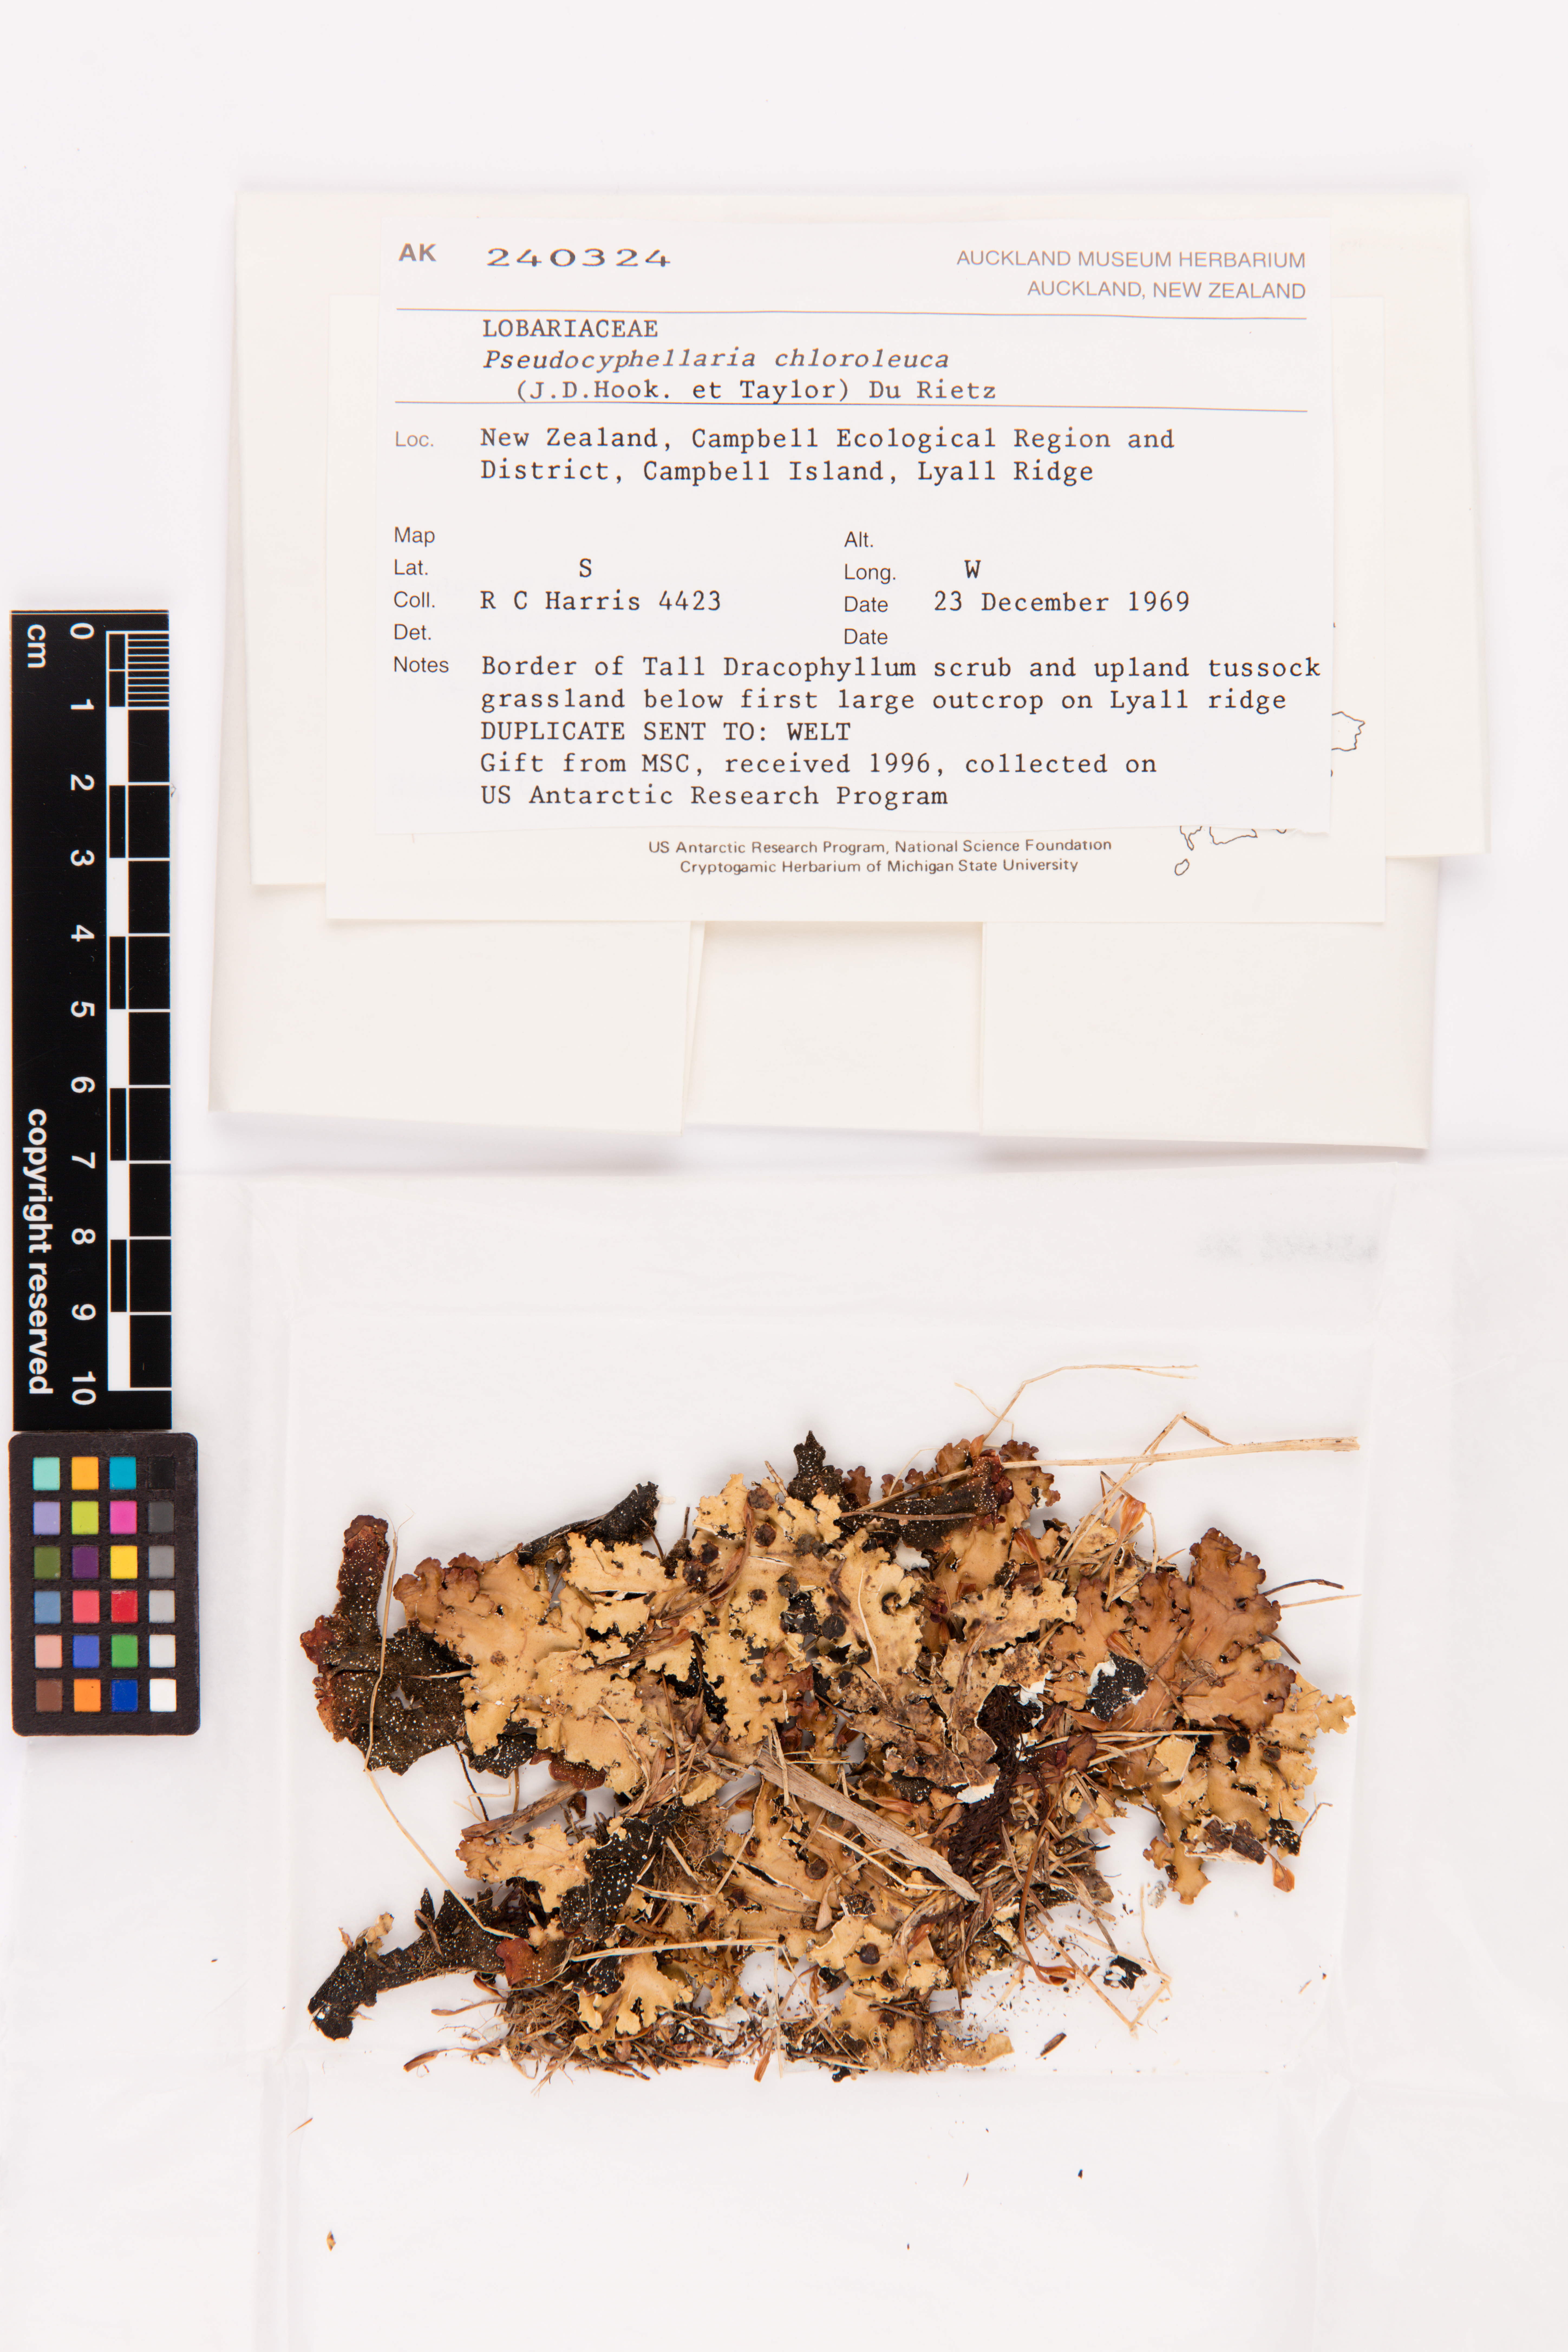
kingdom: Fungi
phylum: Ascomycota
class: Lecanoromycetes
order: Peltigerales
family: Lobariaceae
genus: Pseudocyphellaria
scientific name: Pseudocyphellaria chloroleuca
